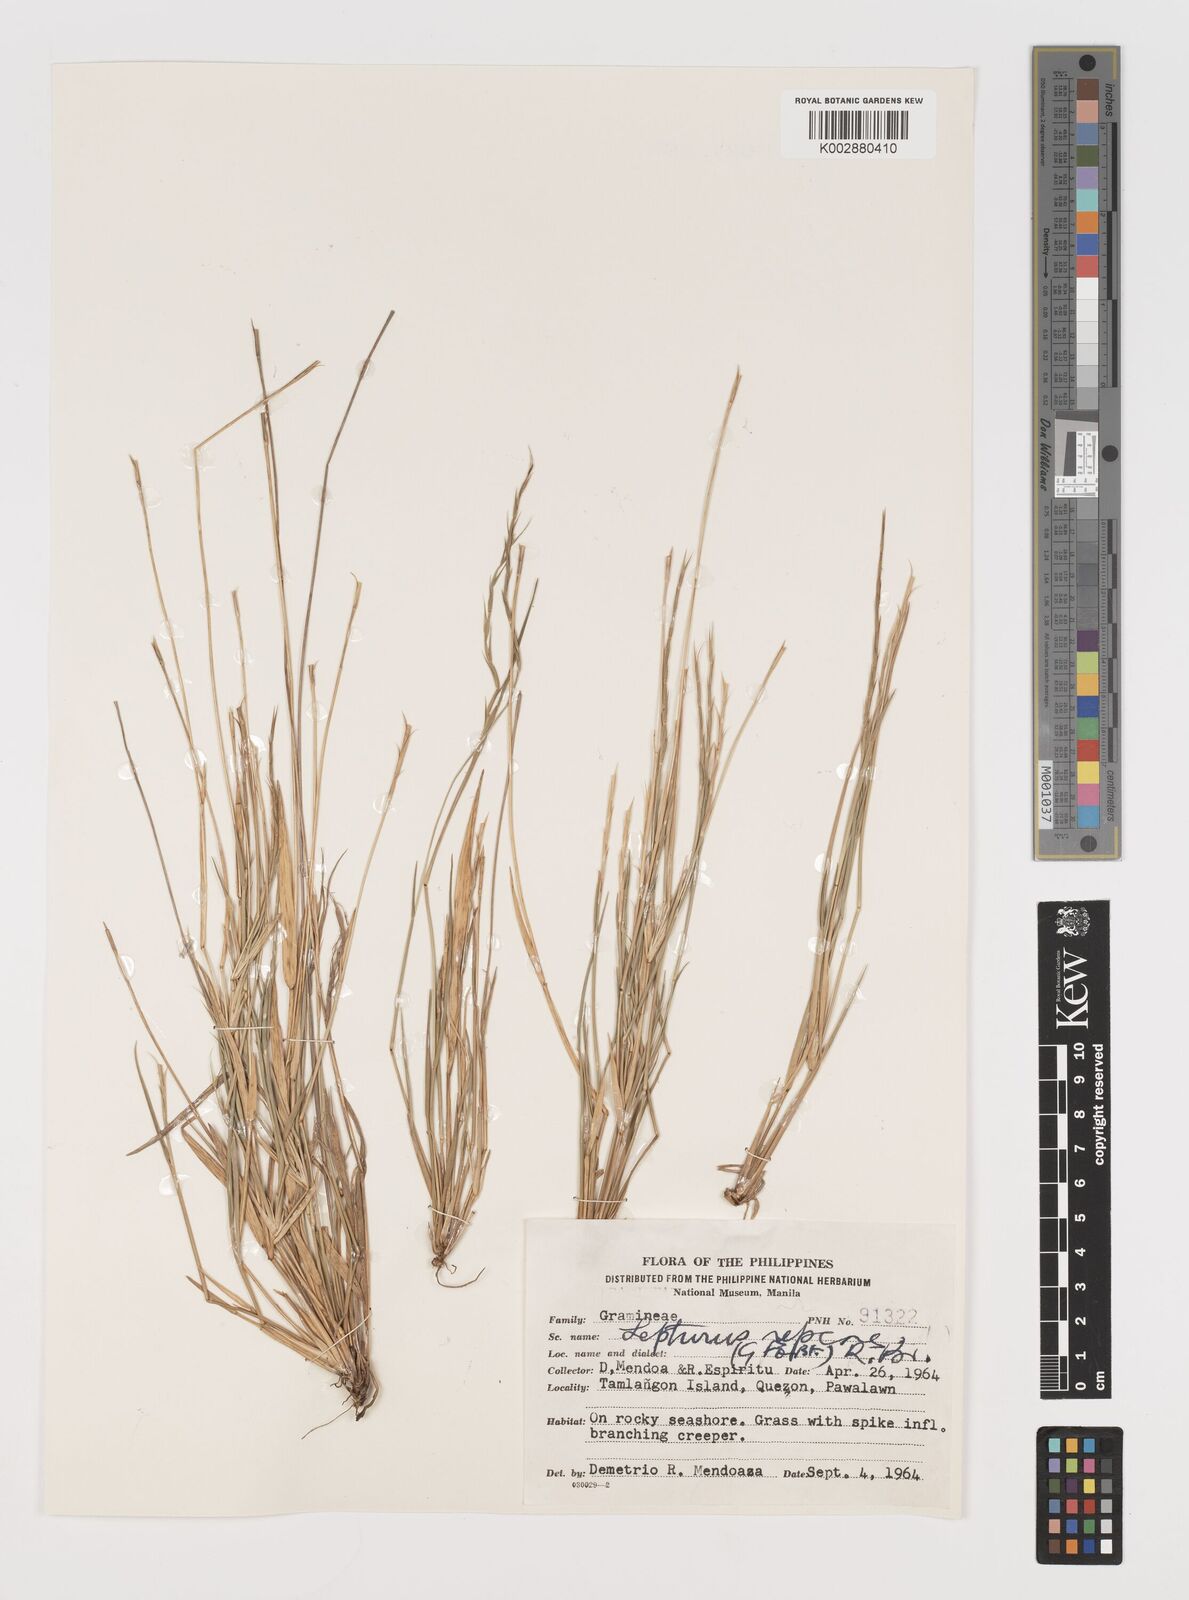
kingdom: Plantae
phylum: Tracheophyta
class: Liliopsida
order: Poales
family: Poaceae
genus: Lepturus
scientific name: Lepturus repens
